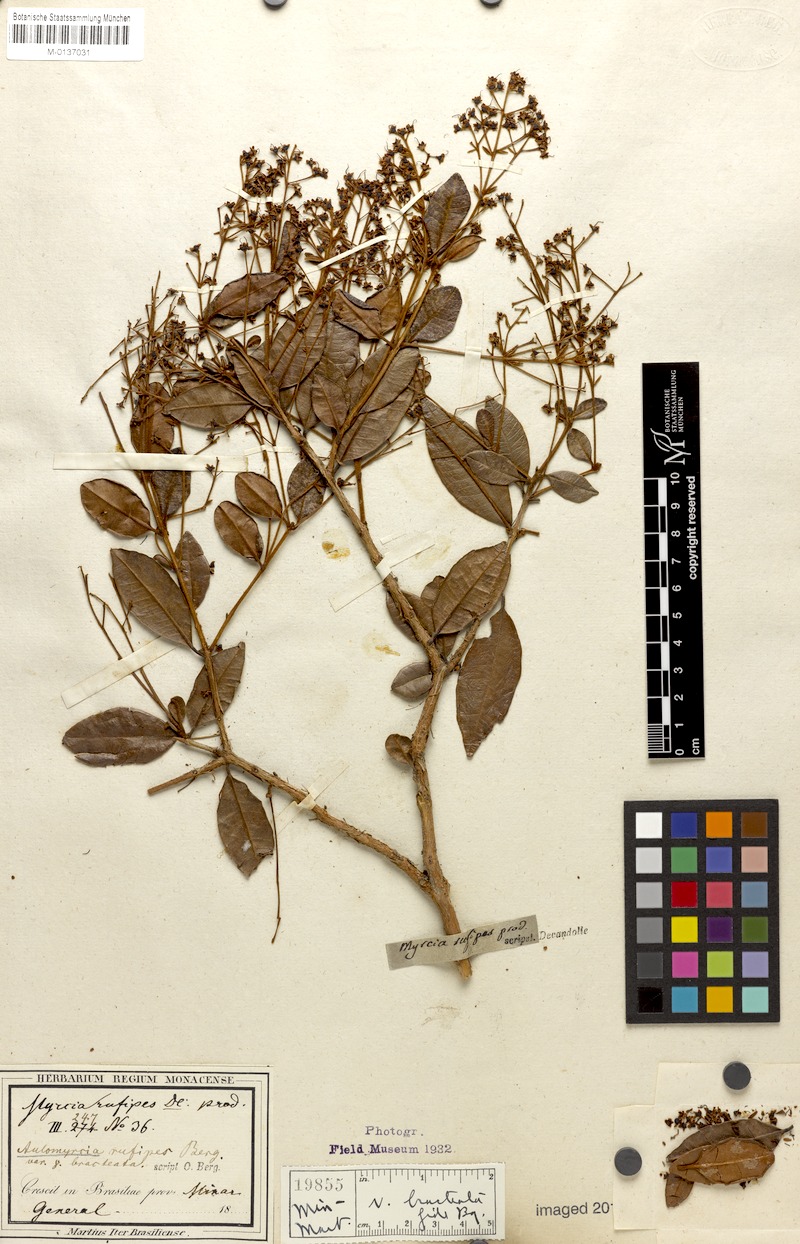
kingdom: Plantae
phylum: Tracheophyta
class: Magnoliopsida
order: Myrtales
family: Myrtaceae
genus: Myrcia
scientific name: Myrcia rufipes
